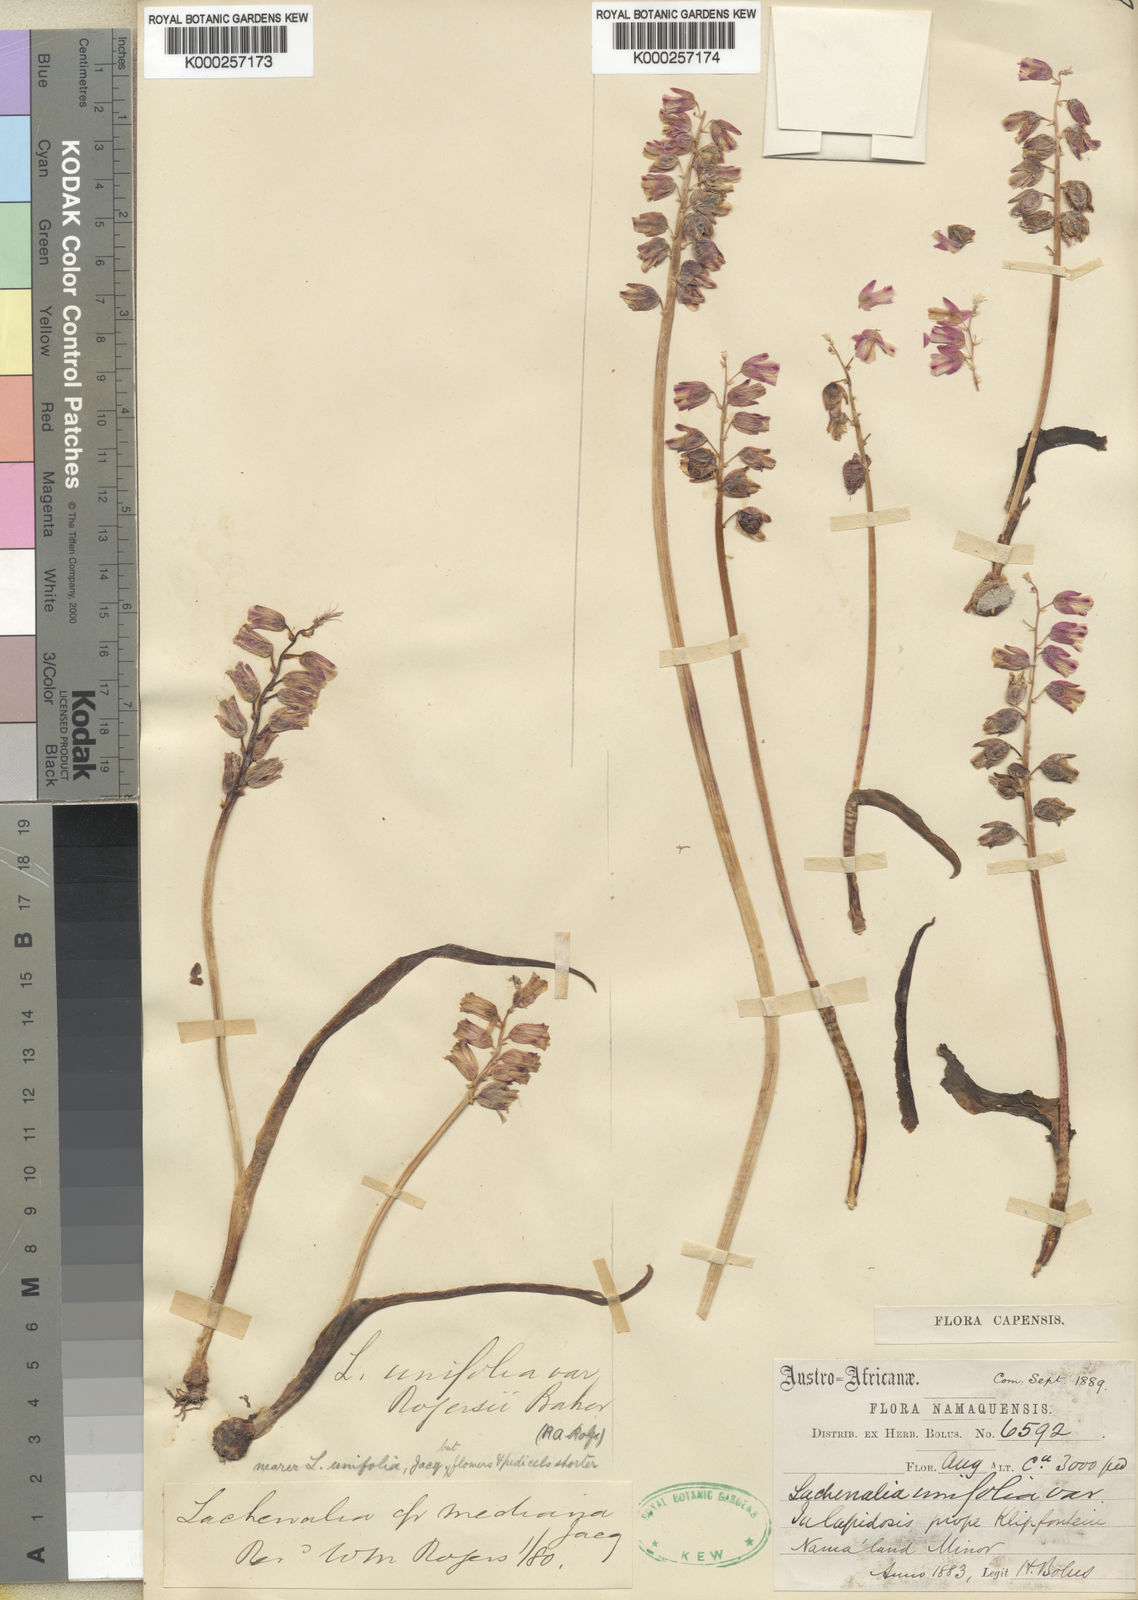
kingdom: Plantae
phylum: Tracheophyta
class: Liliopsida
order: Asparagales
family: Asparagaceae
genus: Lachenalia
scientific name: Lachenalia mediana
